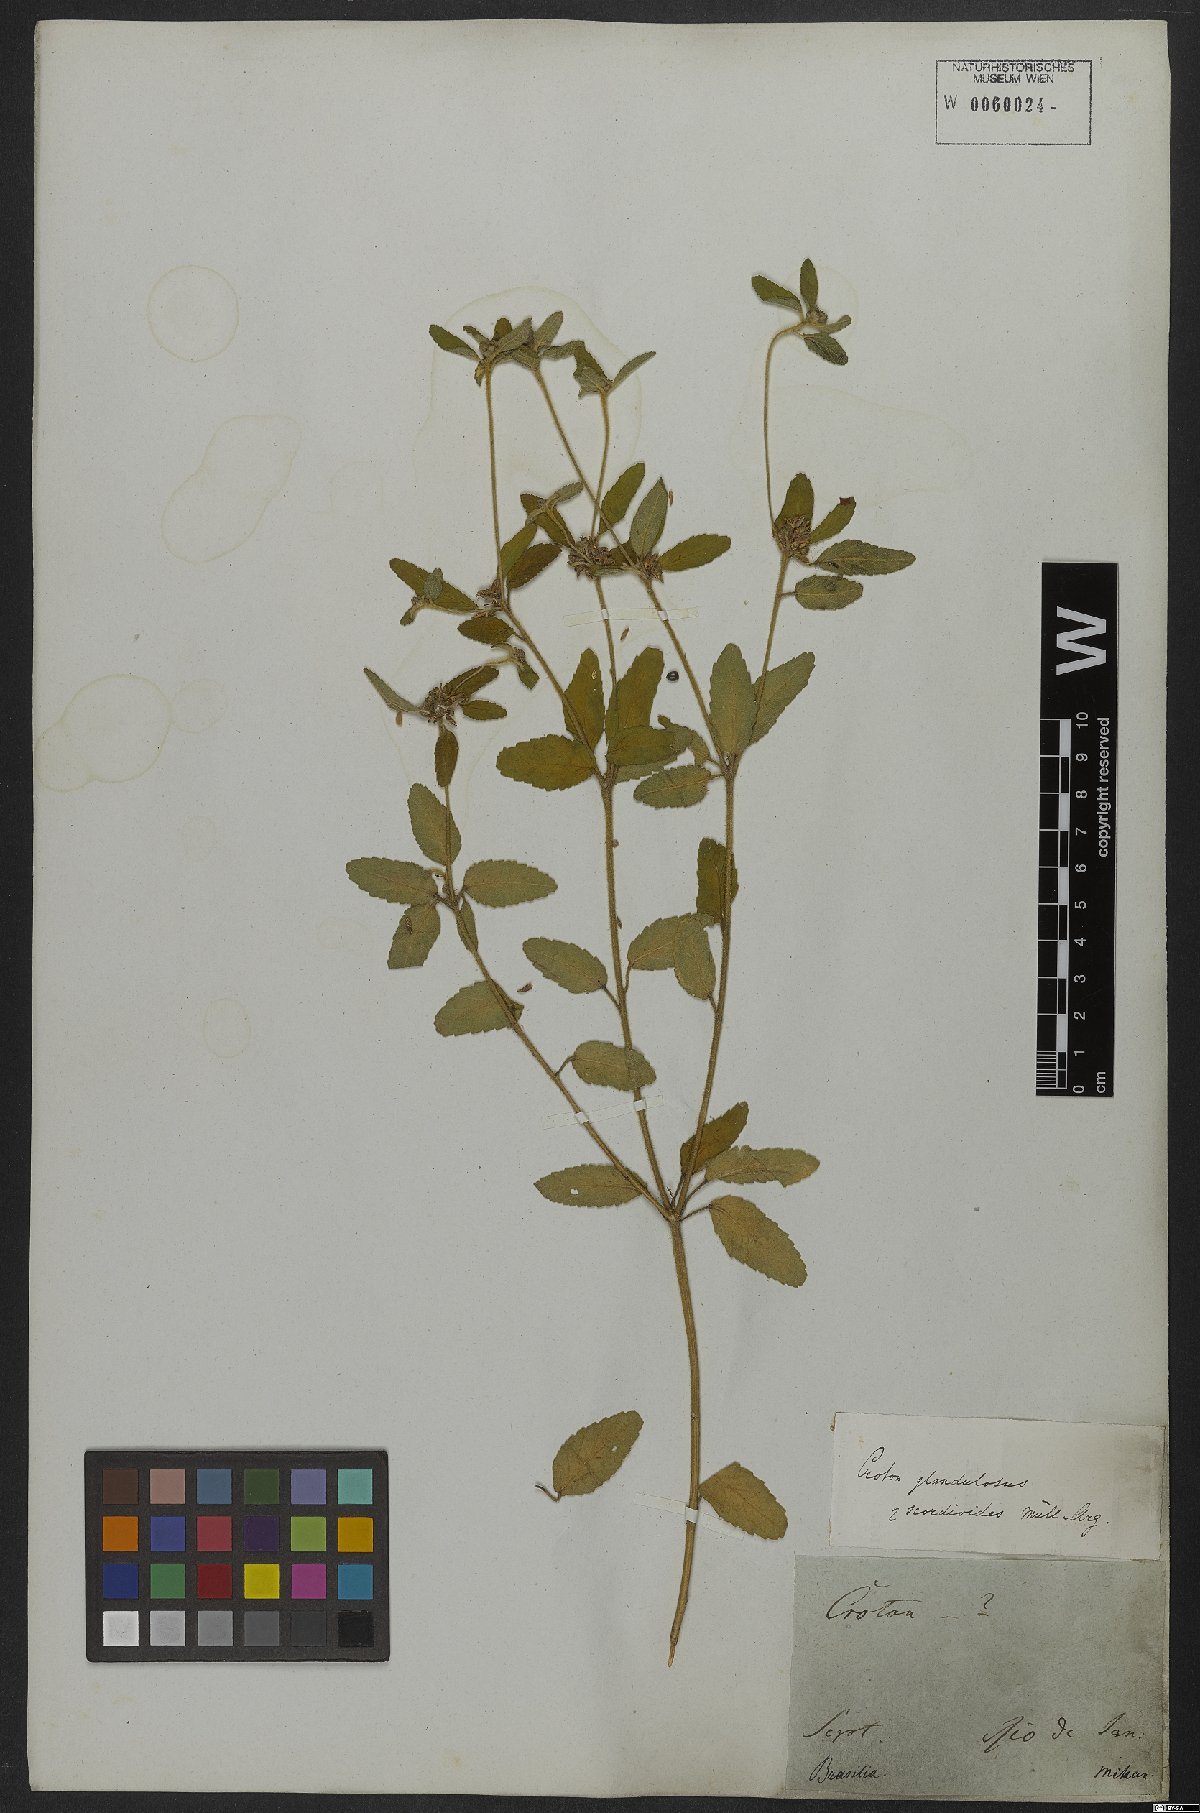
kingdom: Plantae
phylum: Tracheophyta
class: Magnoliopsida
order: Malpighiales
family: Euphorbiaceae
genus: Croton
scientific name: Croton glandulosus
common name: Tropic croton
